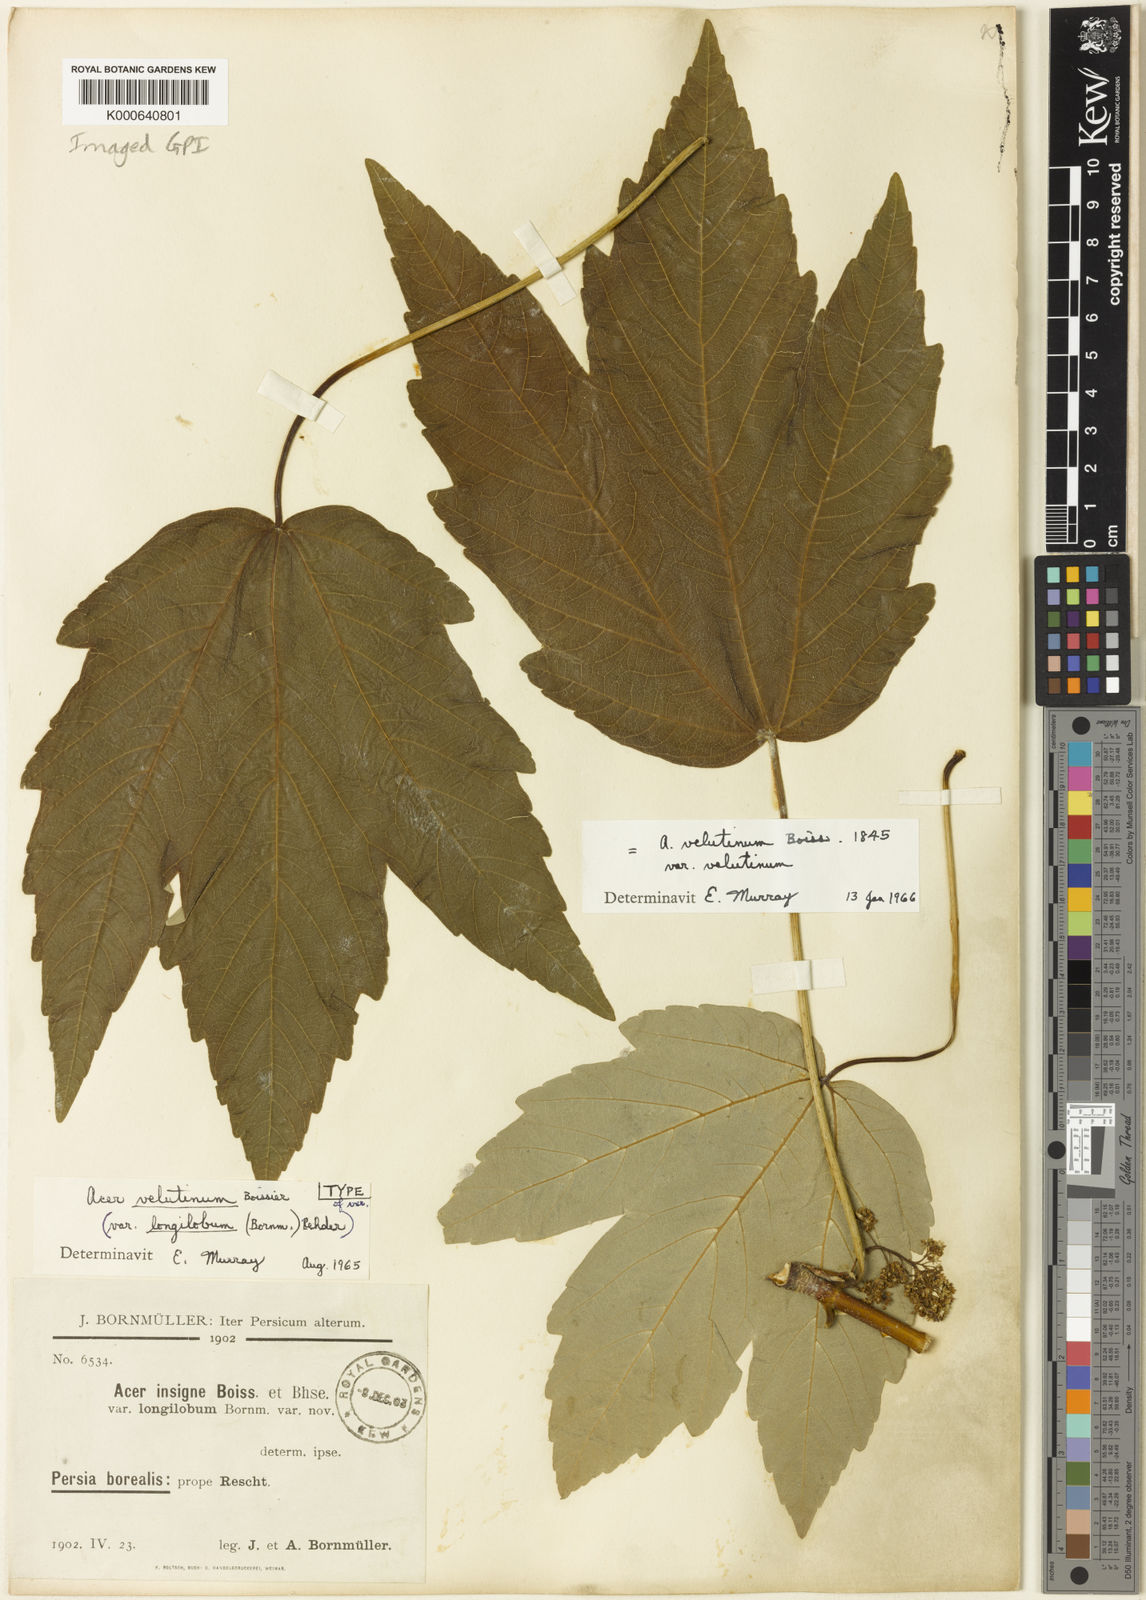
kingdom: Plantae
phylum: Tracheophyta
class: Magnoliopsida
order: Sapindales
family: Sapindaceae
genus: Acer
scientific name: Acer velutinum
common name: Velvet maple
